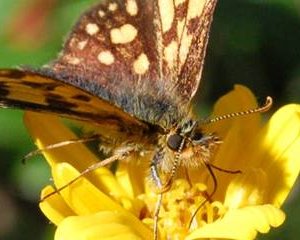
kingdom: Animalia
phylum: Arthropoda
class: Insecta
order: Lepidoptera
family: Hesperiidae
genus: Carterocephalus
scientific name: Carterocephalus palaemon
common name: Chequered Skipper
